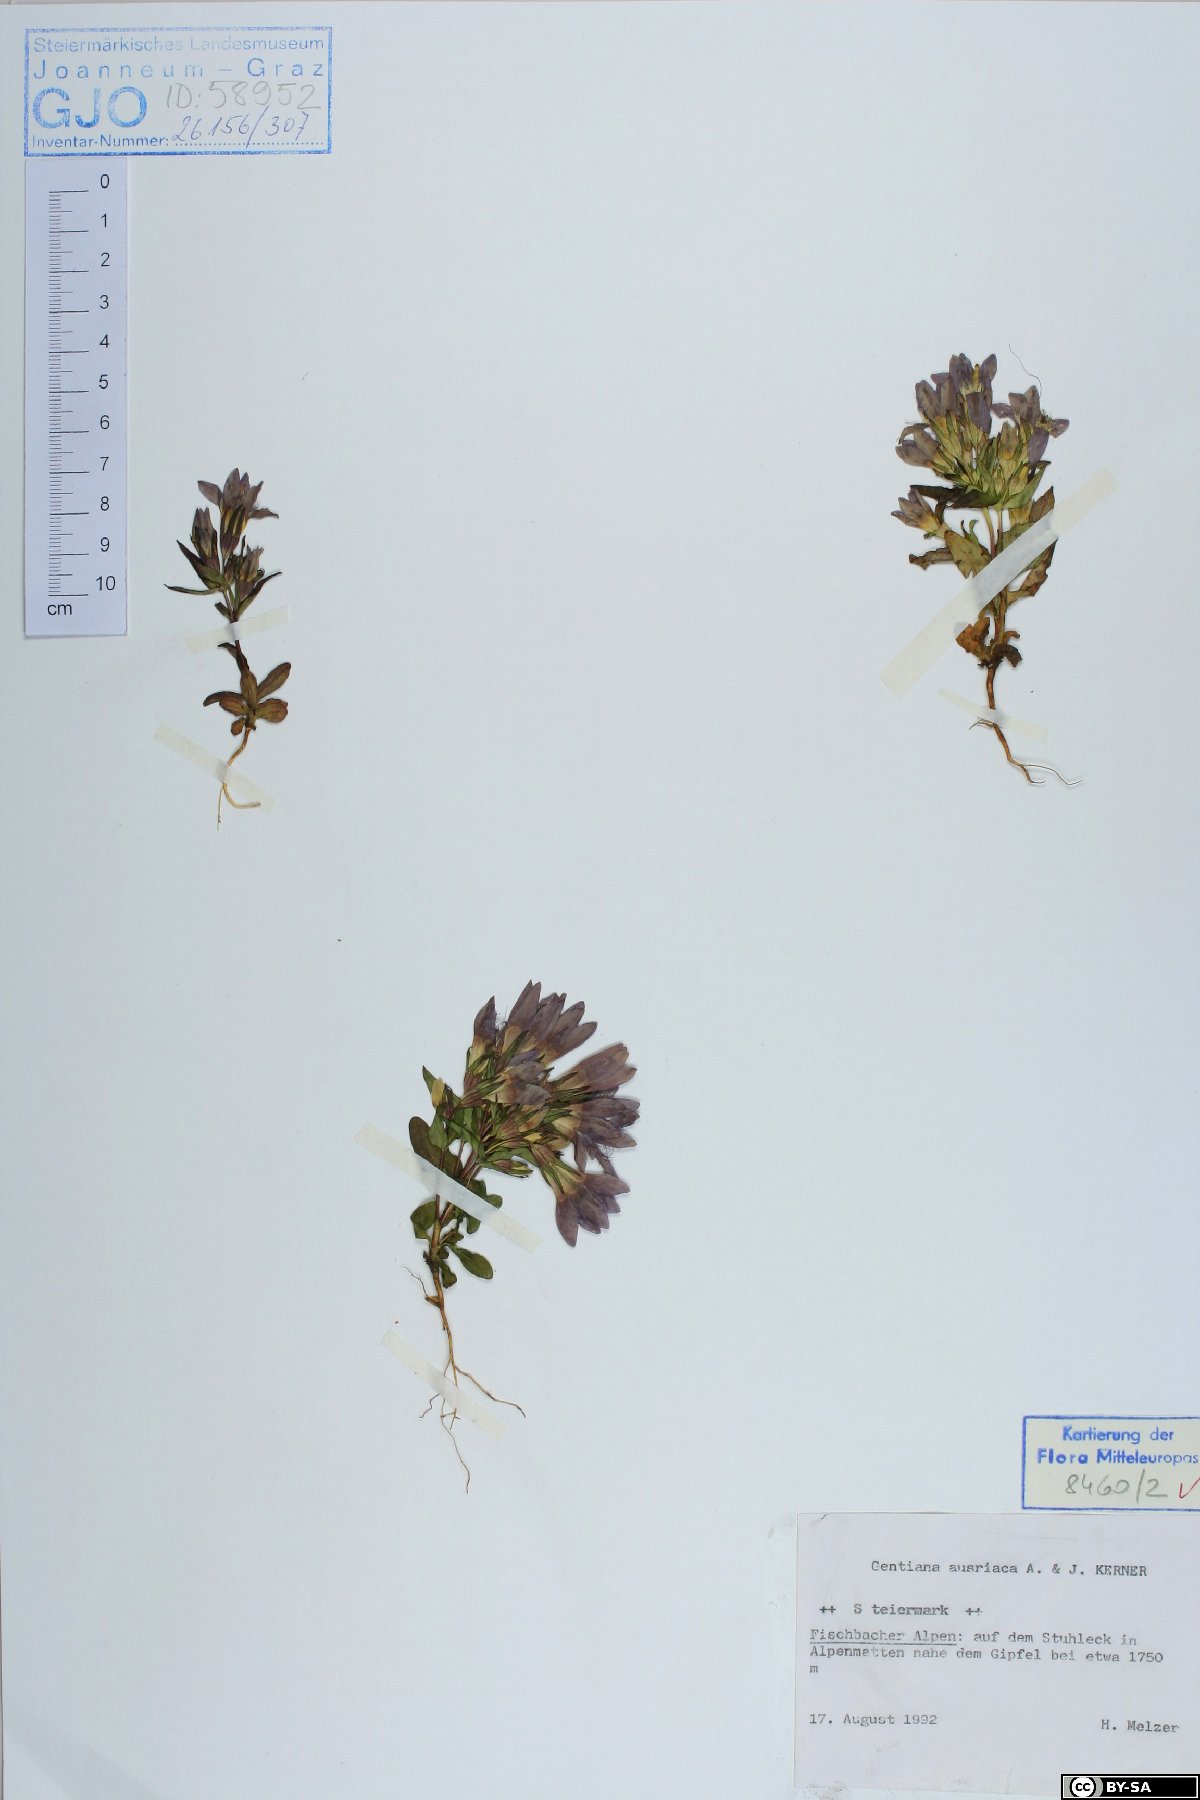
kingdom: Plantae
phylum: Tracheophyta
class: Magnoliopsida
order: Gentianales
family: Gentianaceae
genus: Gentianella
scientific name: Gentianella austriaca
